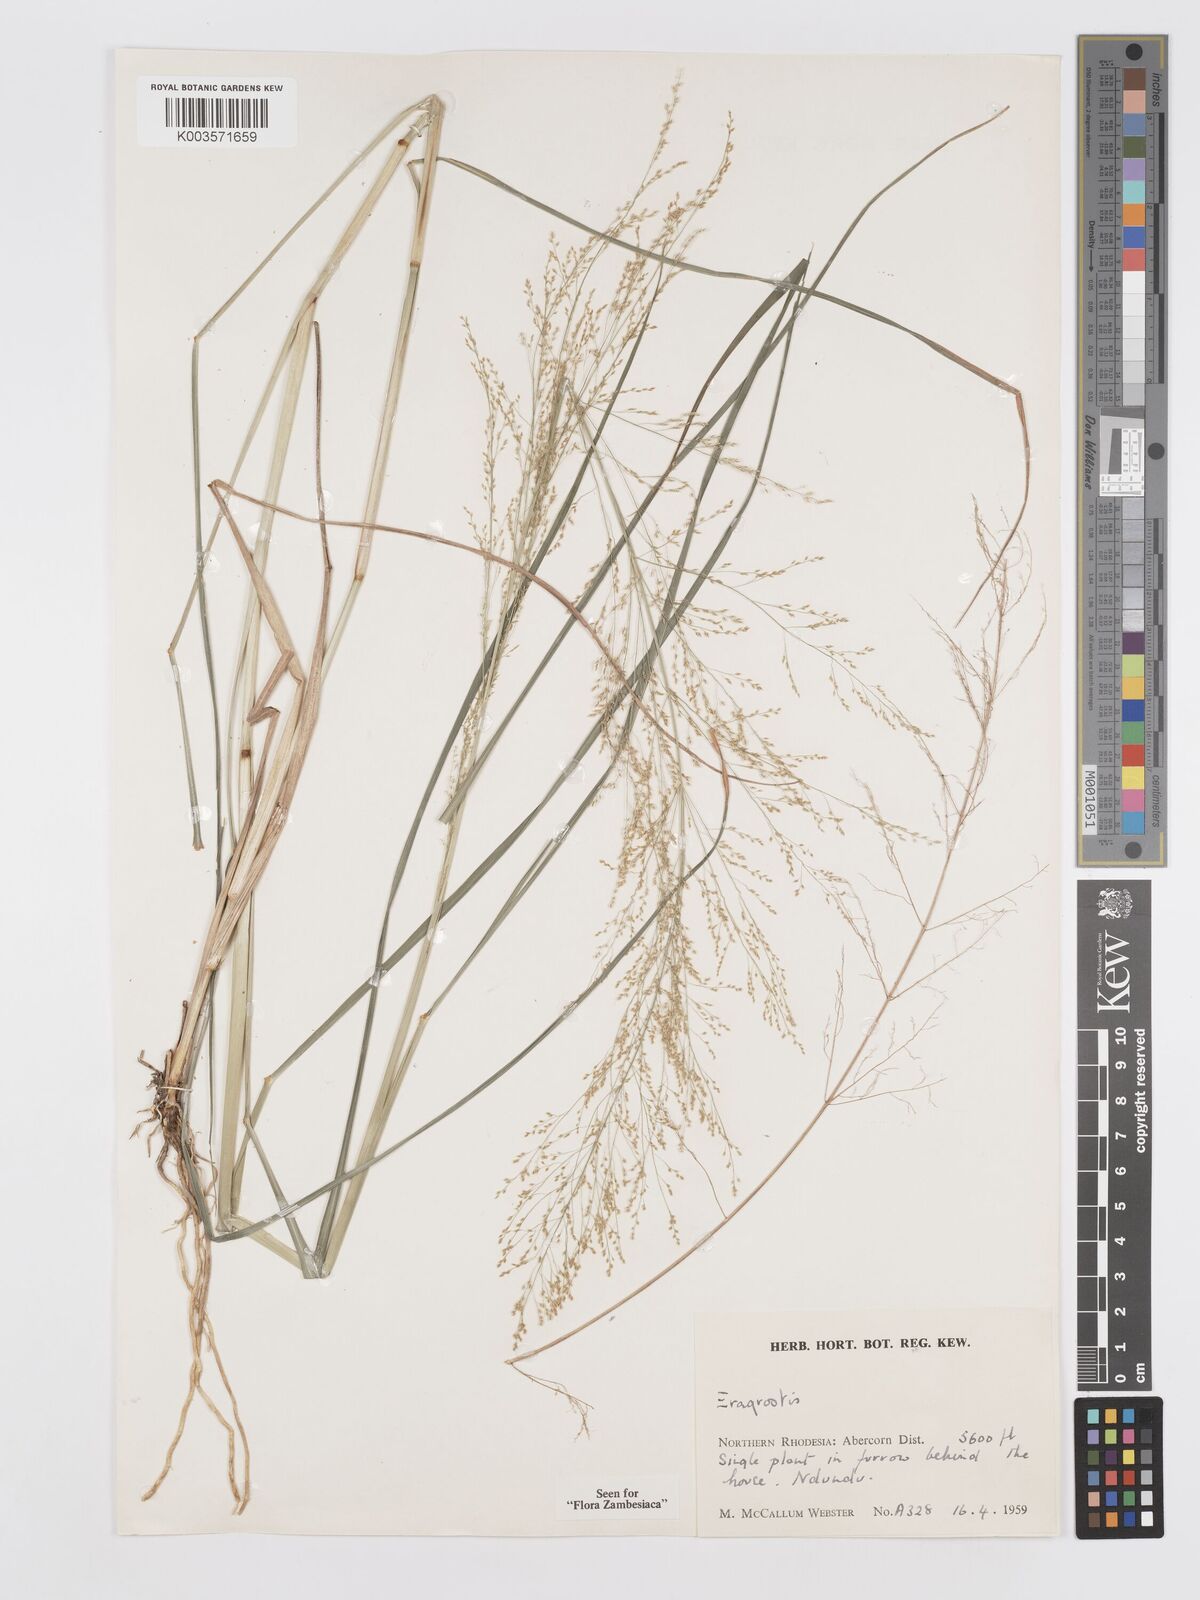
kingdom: Plantae
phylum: Tracheophyta
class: Liliopsida
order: Poales
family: Poaceae
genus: Eragrostis
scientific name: Eragrostis japonica
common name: Pond lovegrass
